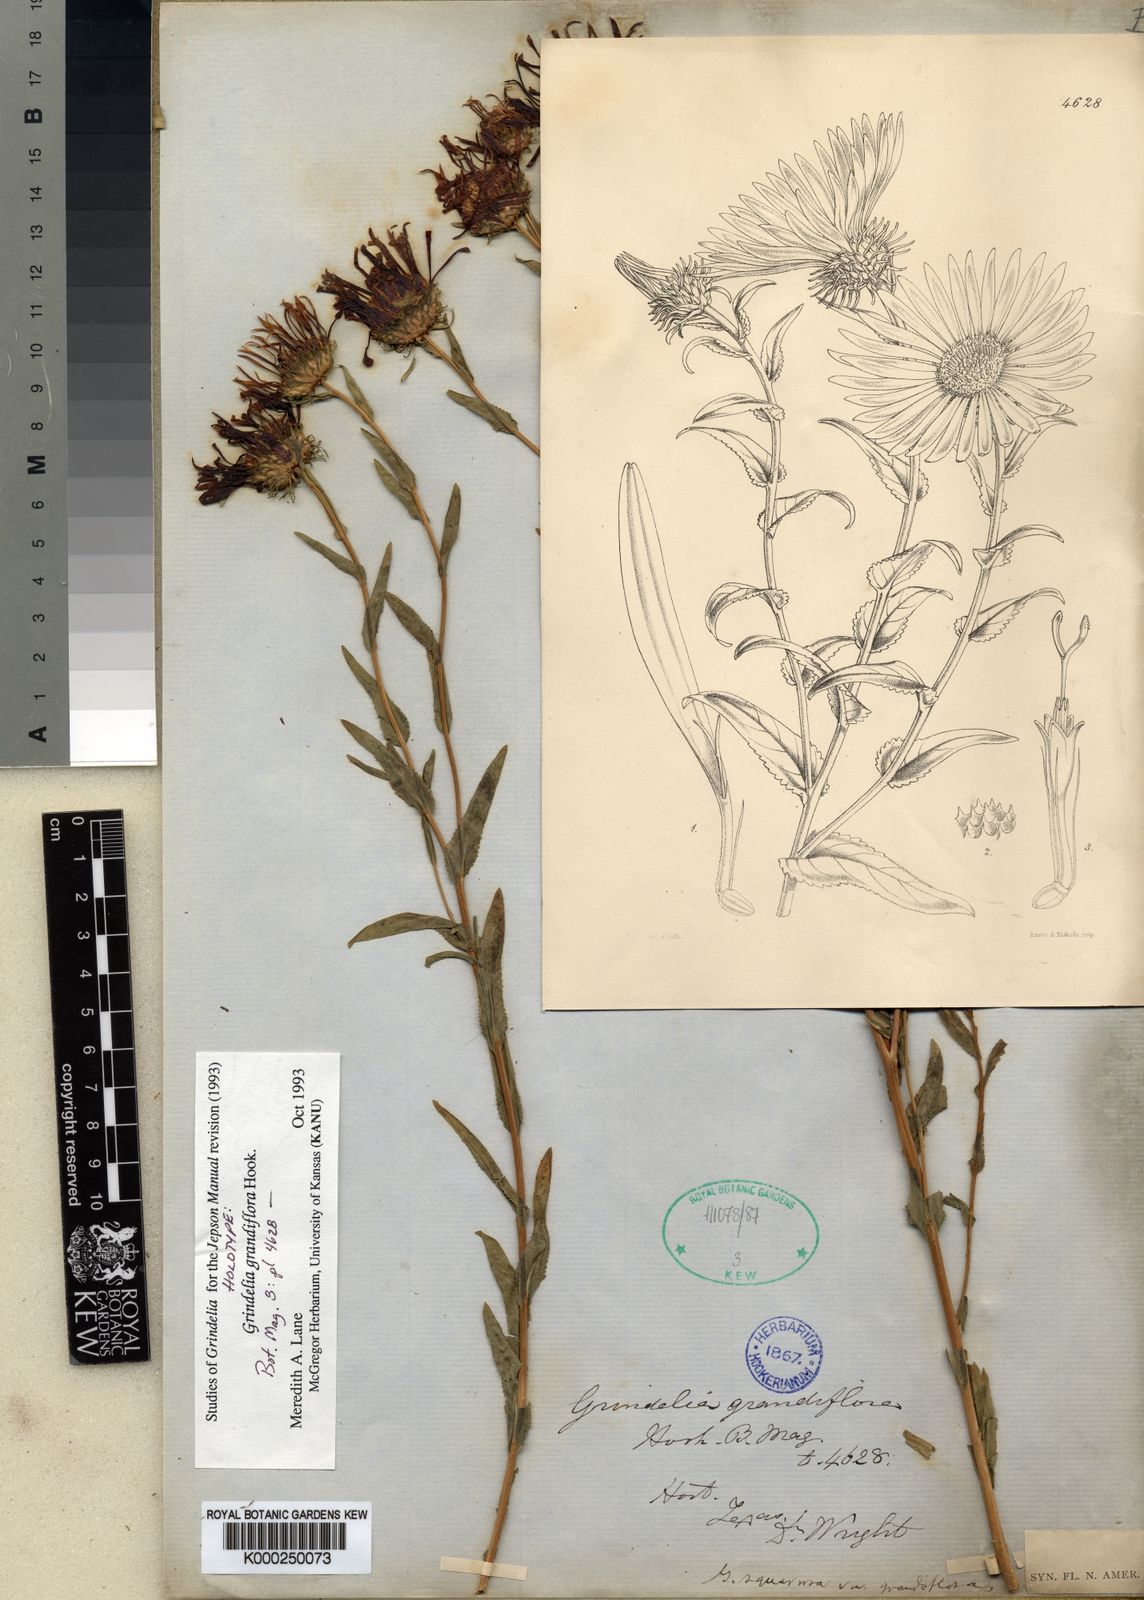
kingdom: Plantae
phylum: Tracheophyta
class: Magnoliopsida
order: Asterales
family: Asteraceae
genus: Grindelia
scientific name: Grindelia grandiflora
